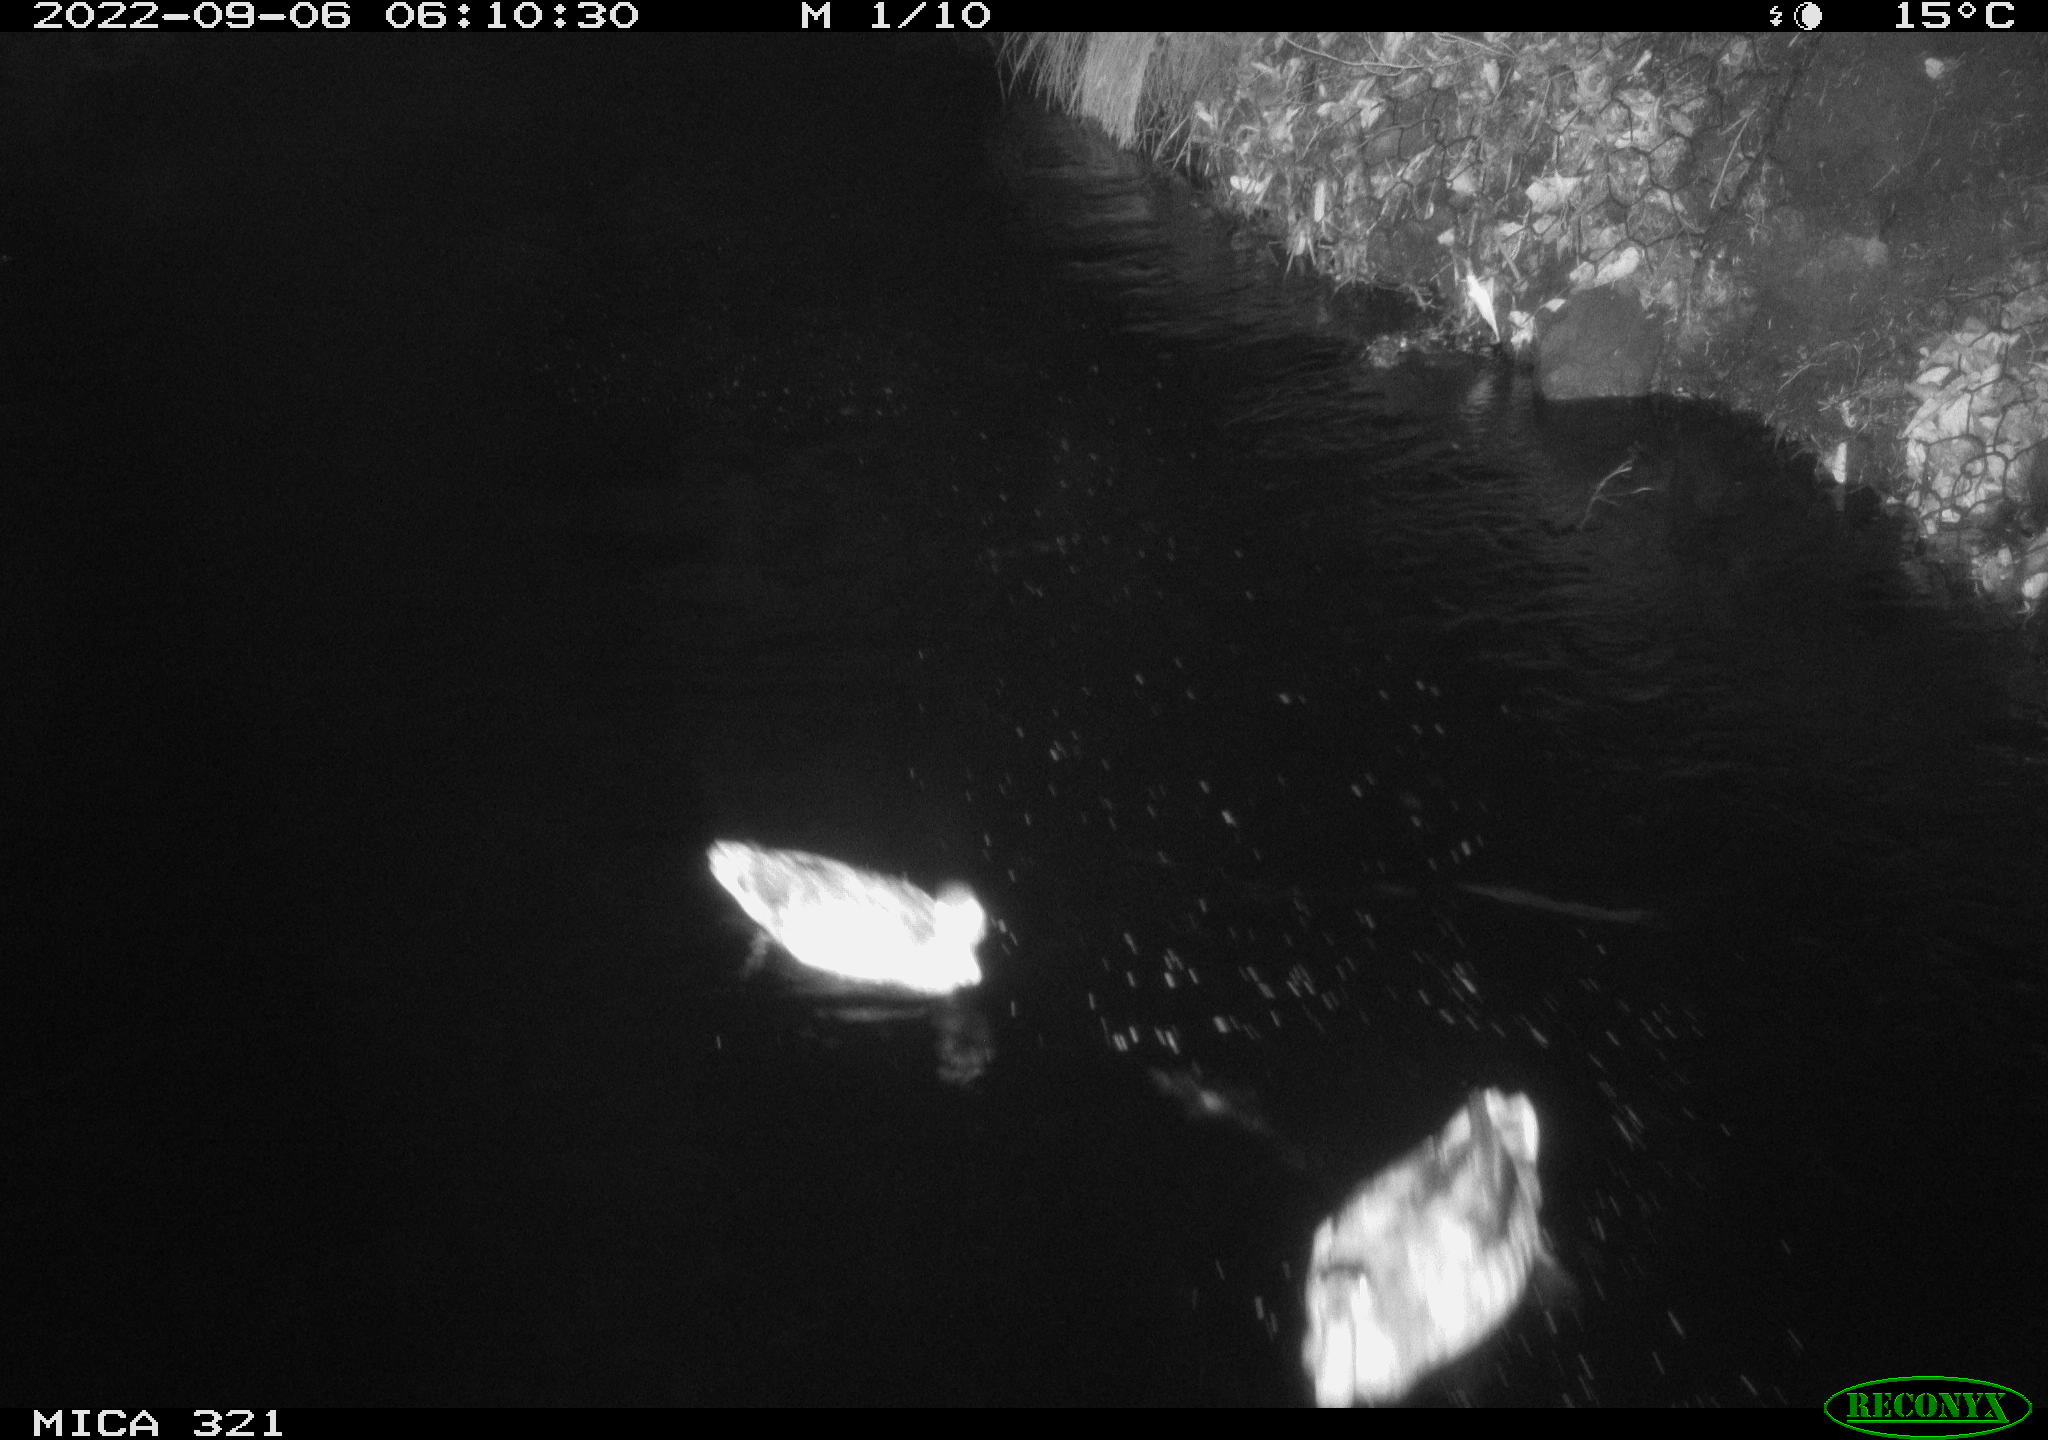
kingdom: Animalia
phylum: Chordata
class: Aves
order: Anseriformes
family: Anatidae
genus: Anas
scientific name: Anas platyrhynchos
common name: Mallard
